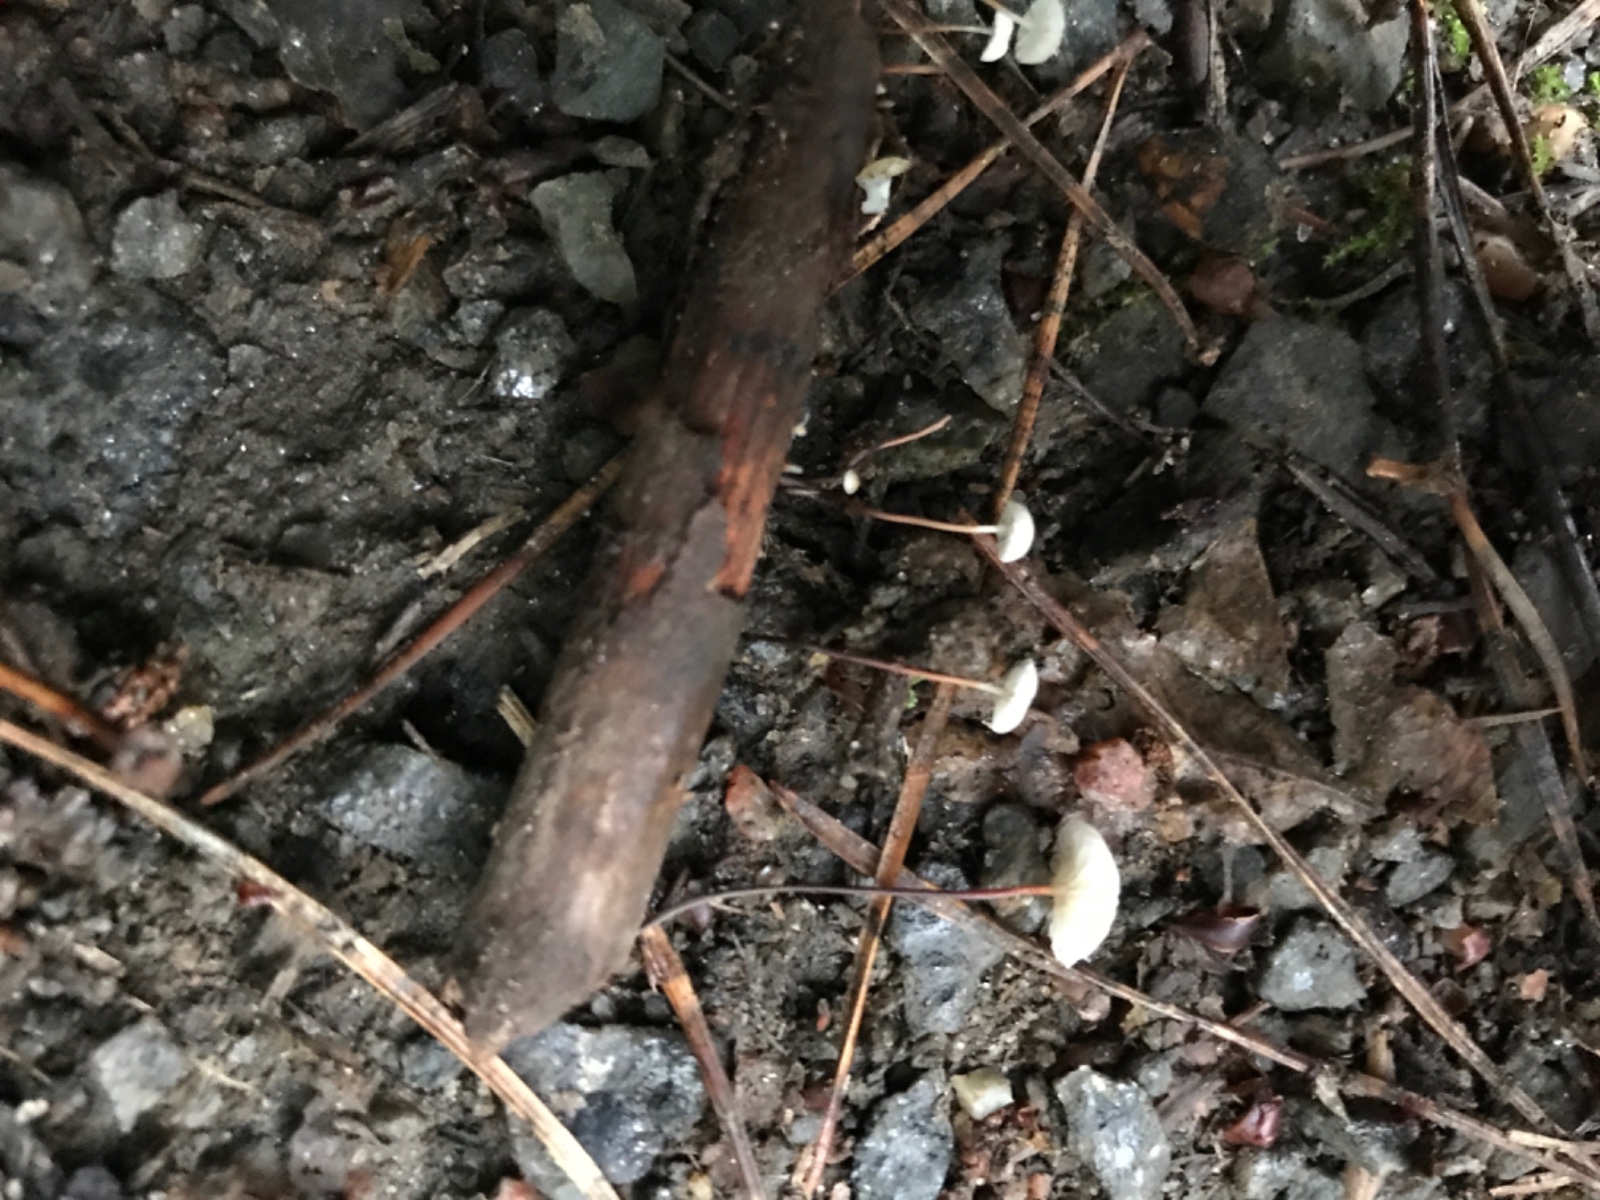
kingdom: Fungi
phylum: Basidiomycota
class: Agaricomycetes
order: Agaricales
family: Marasmiaceae
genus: Marasmius
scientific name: Marasmius rotula
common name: hjul-bruskhat
